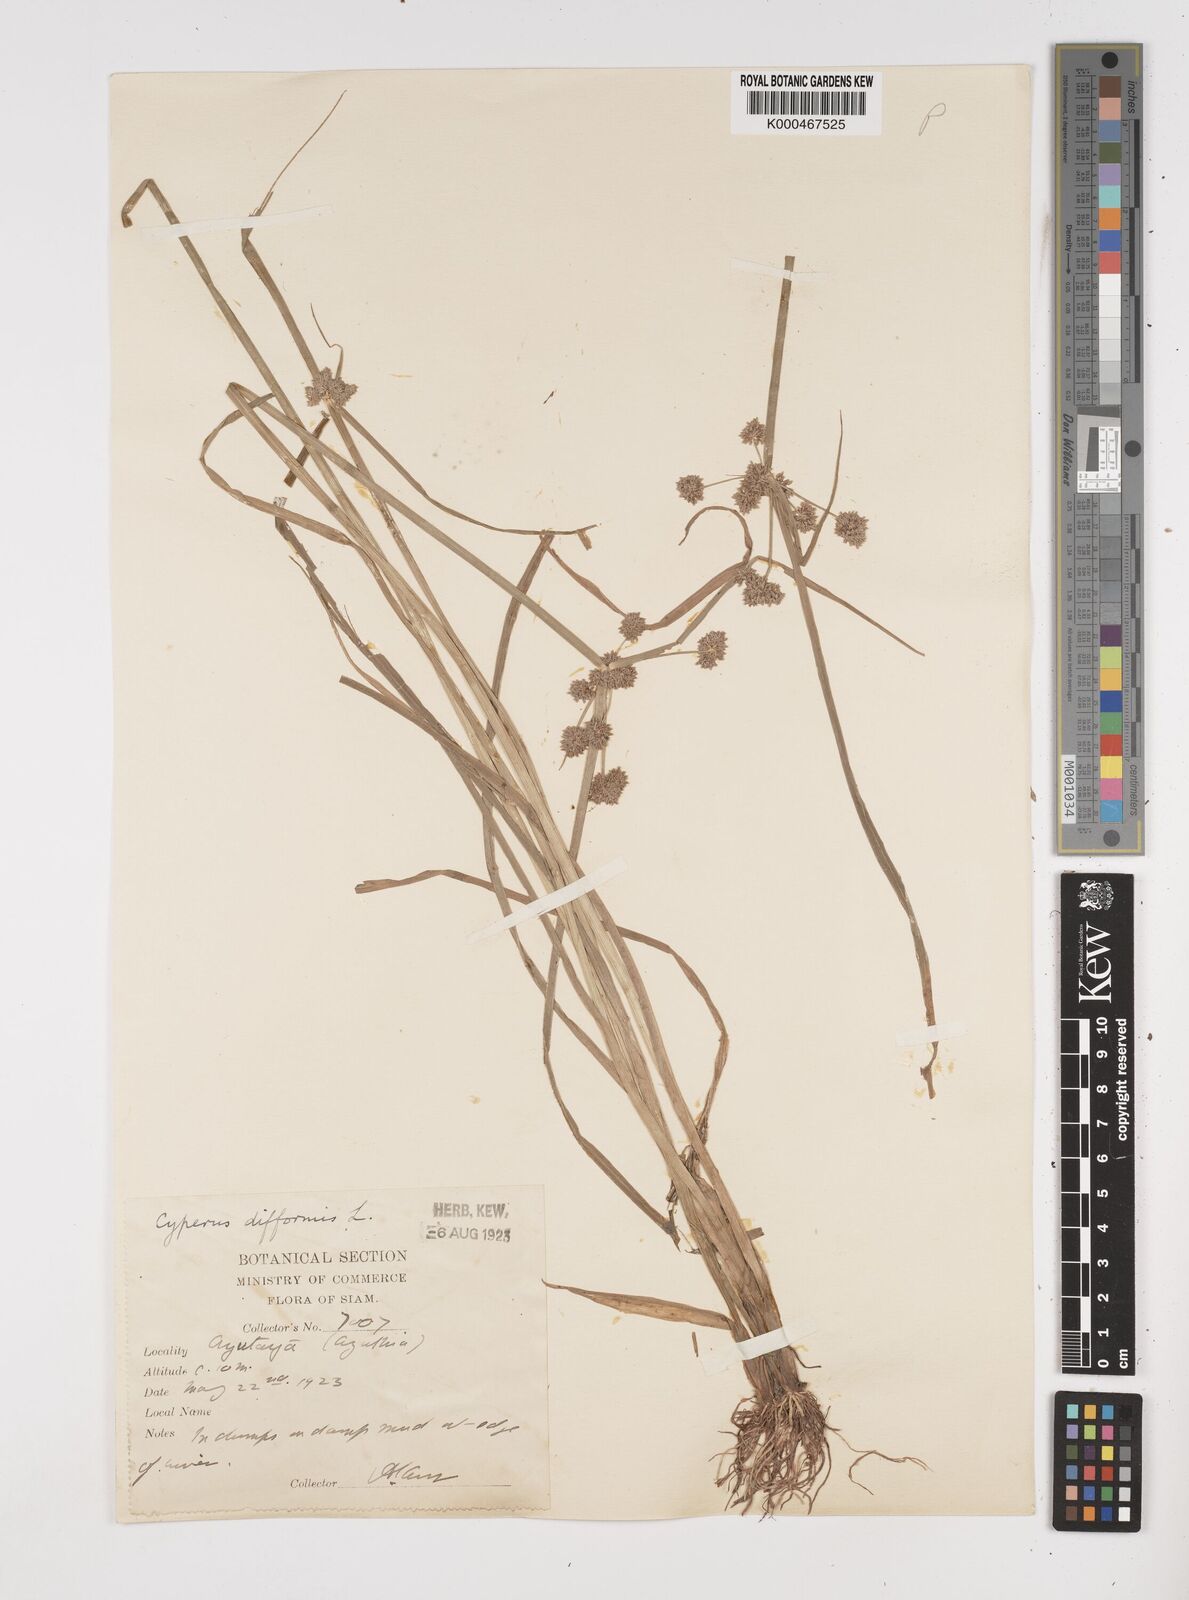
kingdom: Plantae
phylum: Tracheophyta
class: Liliopsida
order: Poales
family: Cyperaceae
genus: Cyperus
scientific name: Cyperus difformis
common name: Variable flatsedge
